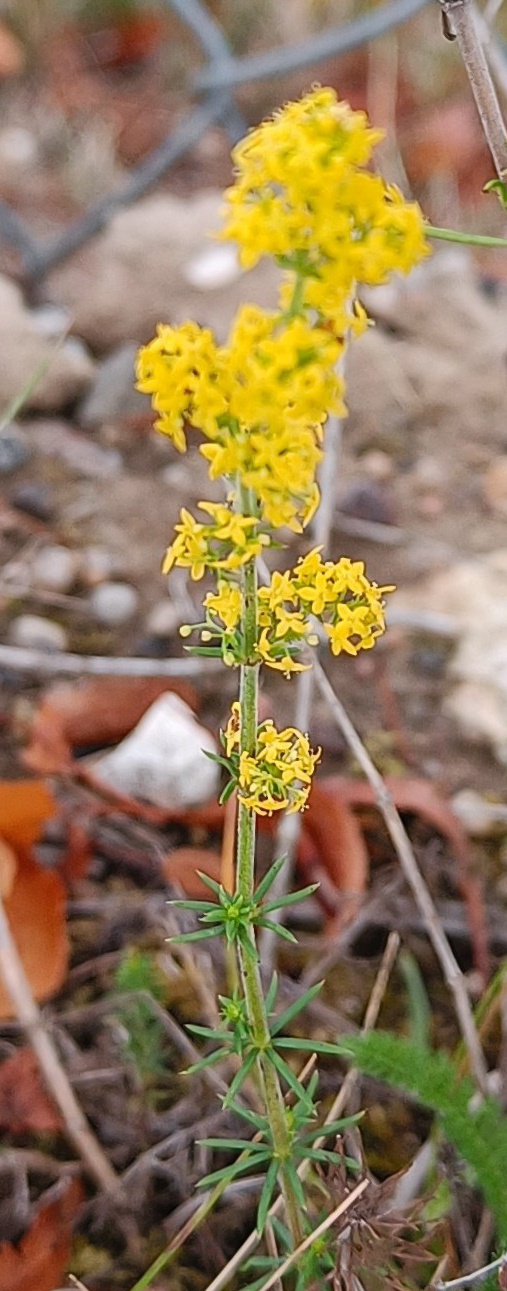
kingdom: Plantae
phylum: Tracheophyta
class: Magnoliopsida
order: Gentianales
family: Rubiaceae
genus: Galium
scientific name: Galium verum
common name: Gul snerre
